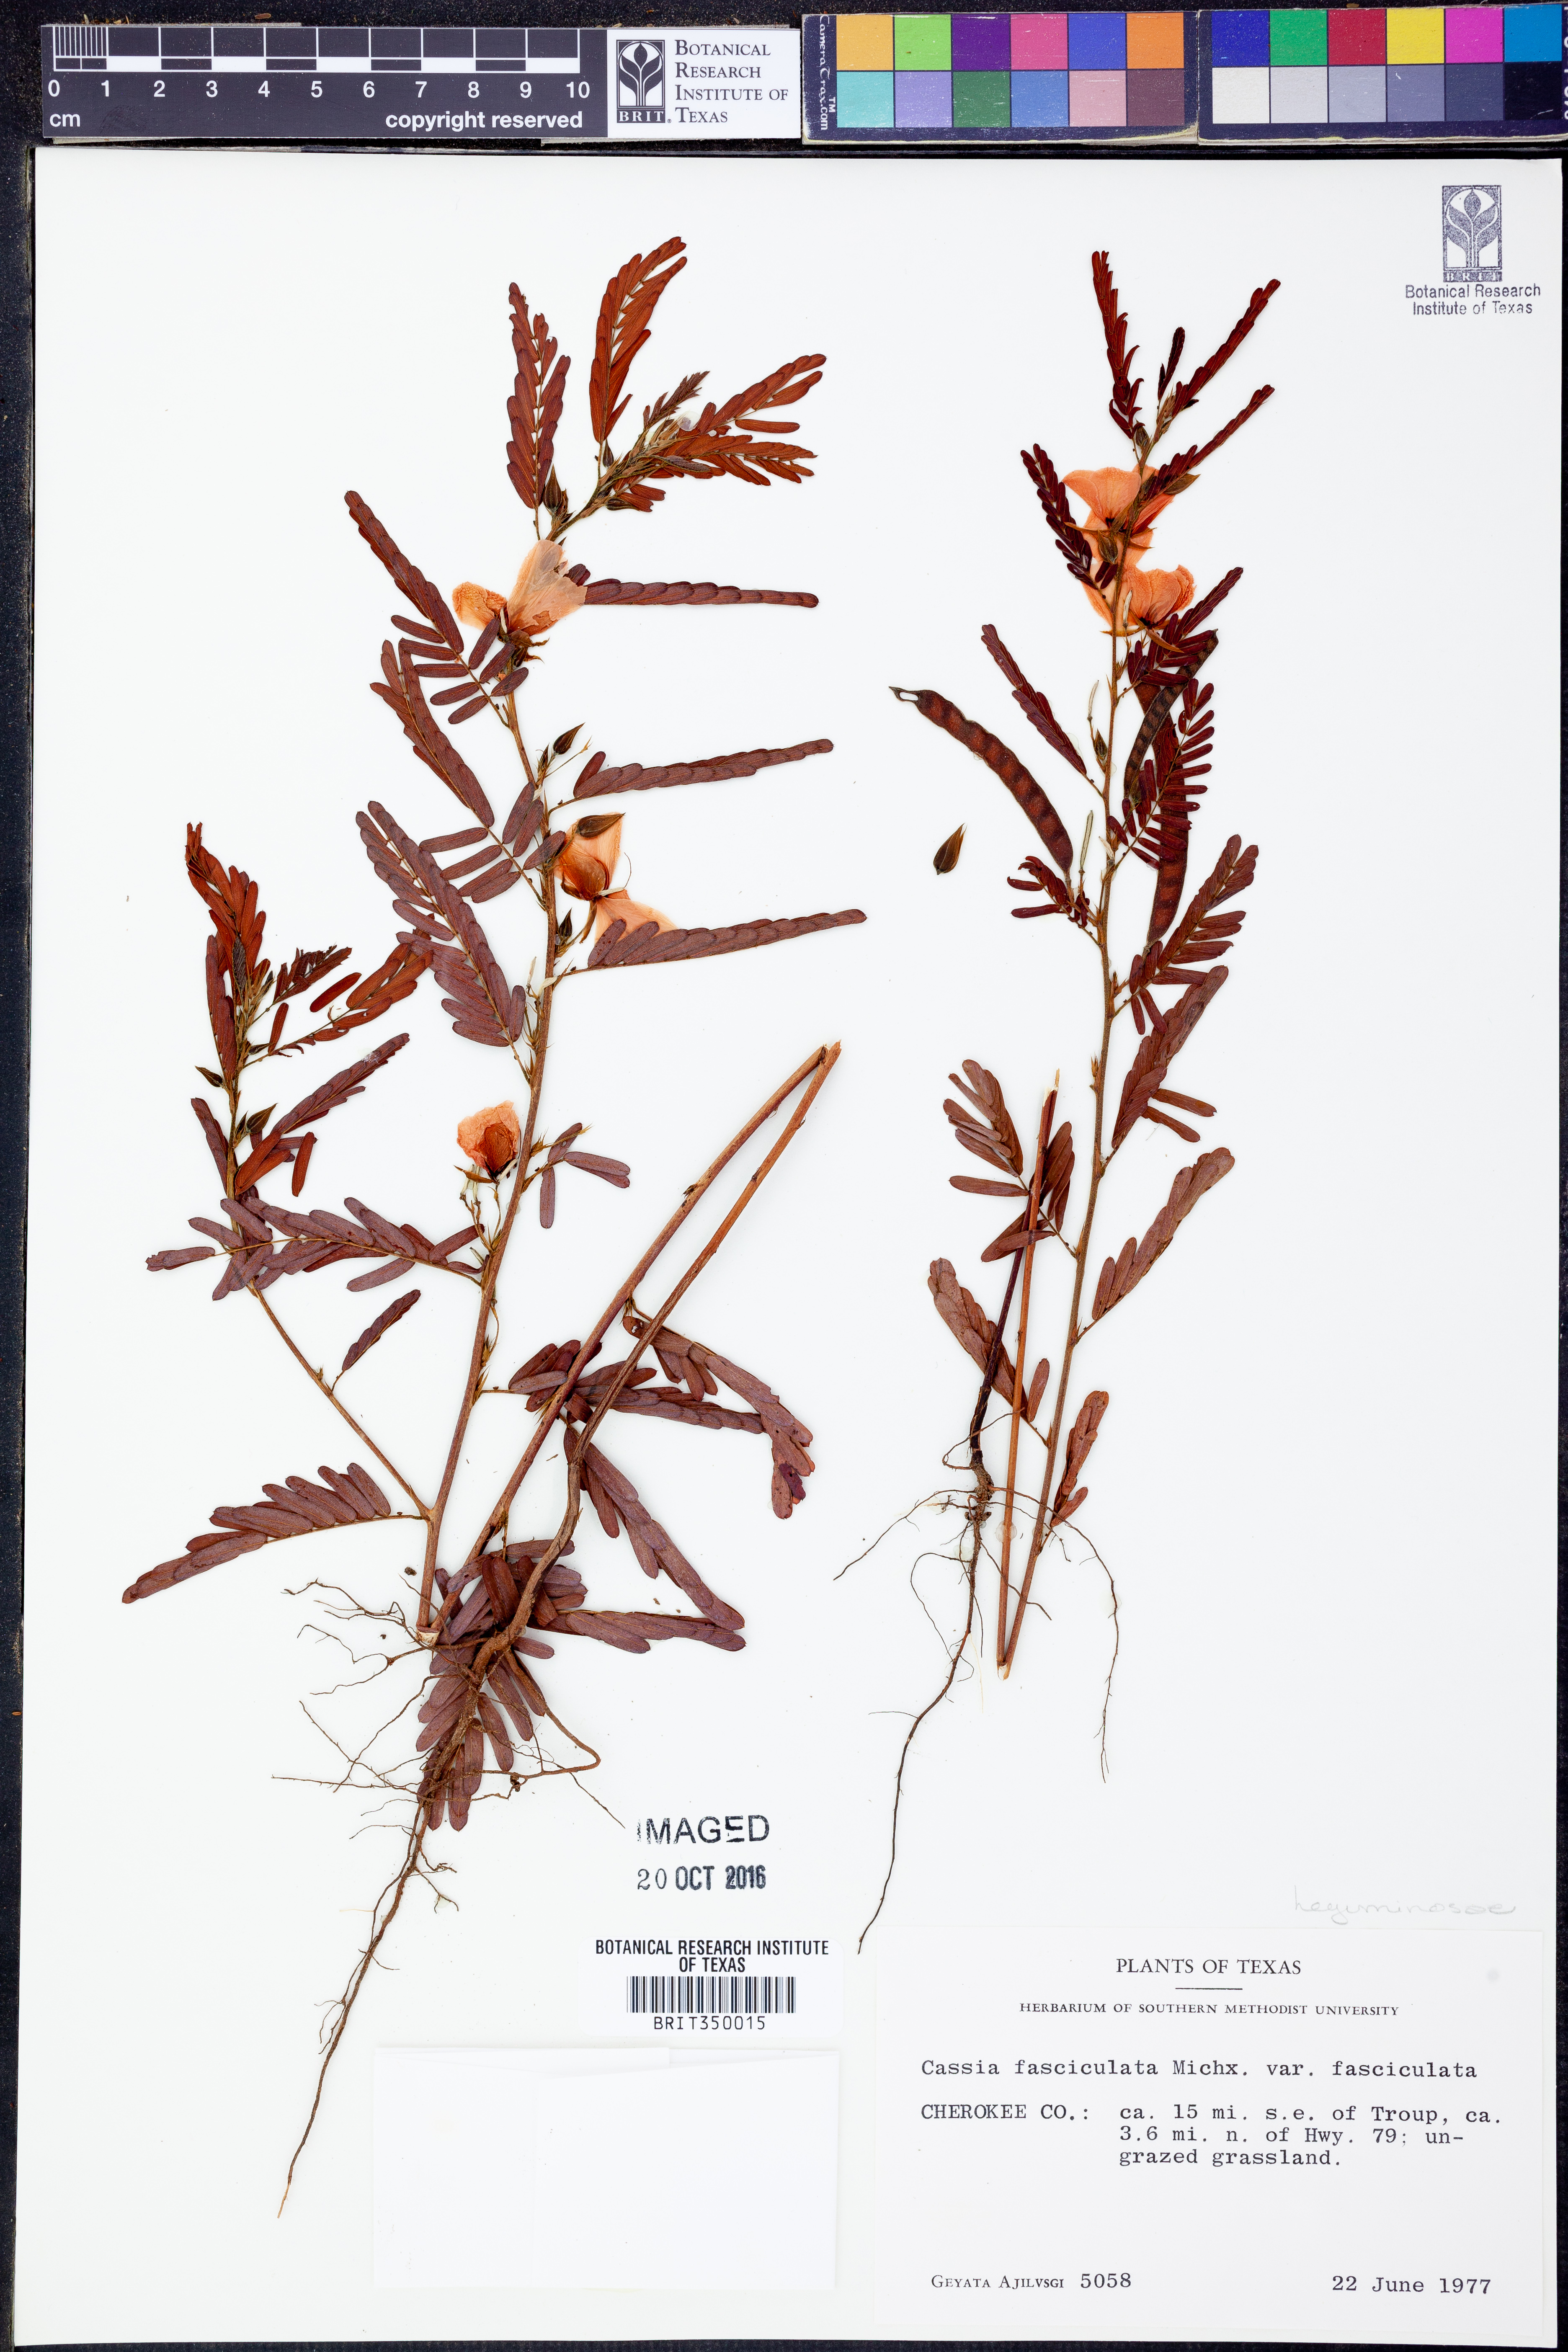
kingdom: Plantae
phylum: Tracheophyta
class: Magnoliopsida
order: Fabales
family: Fabaceae
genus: Chamaecrista
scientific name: Chamaecrista fasciculata
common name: Golden cassia
